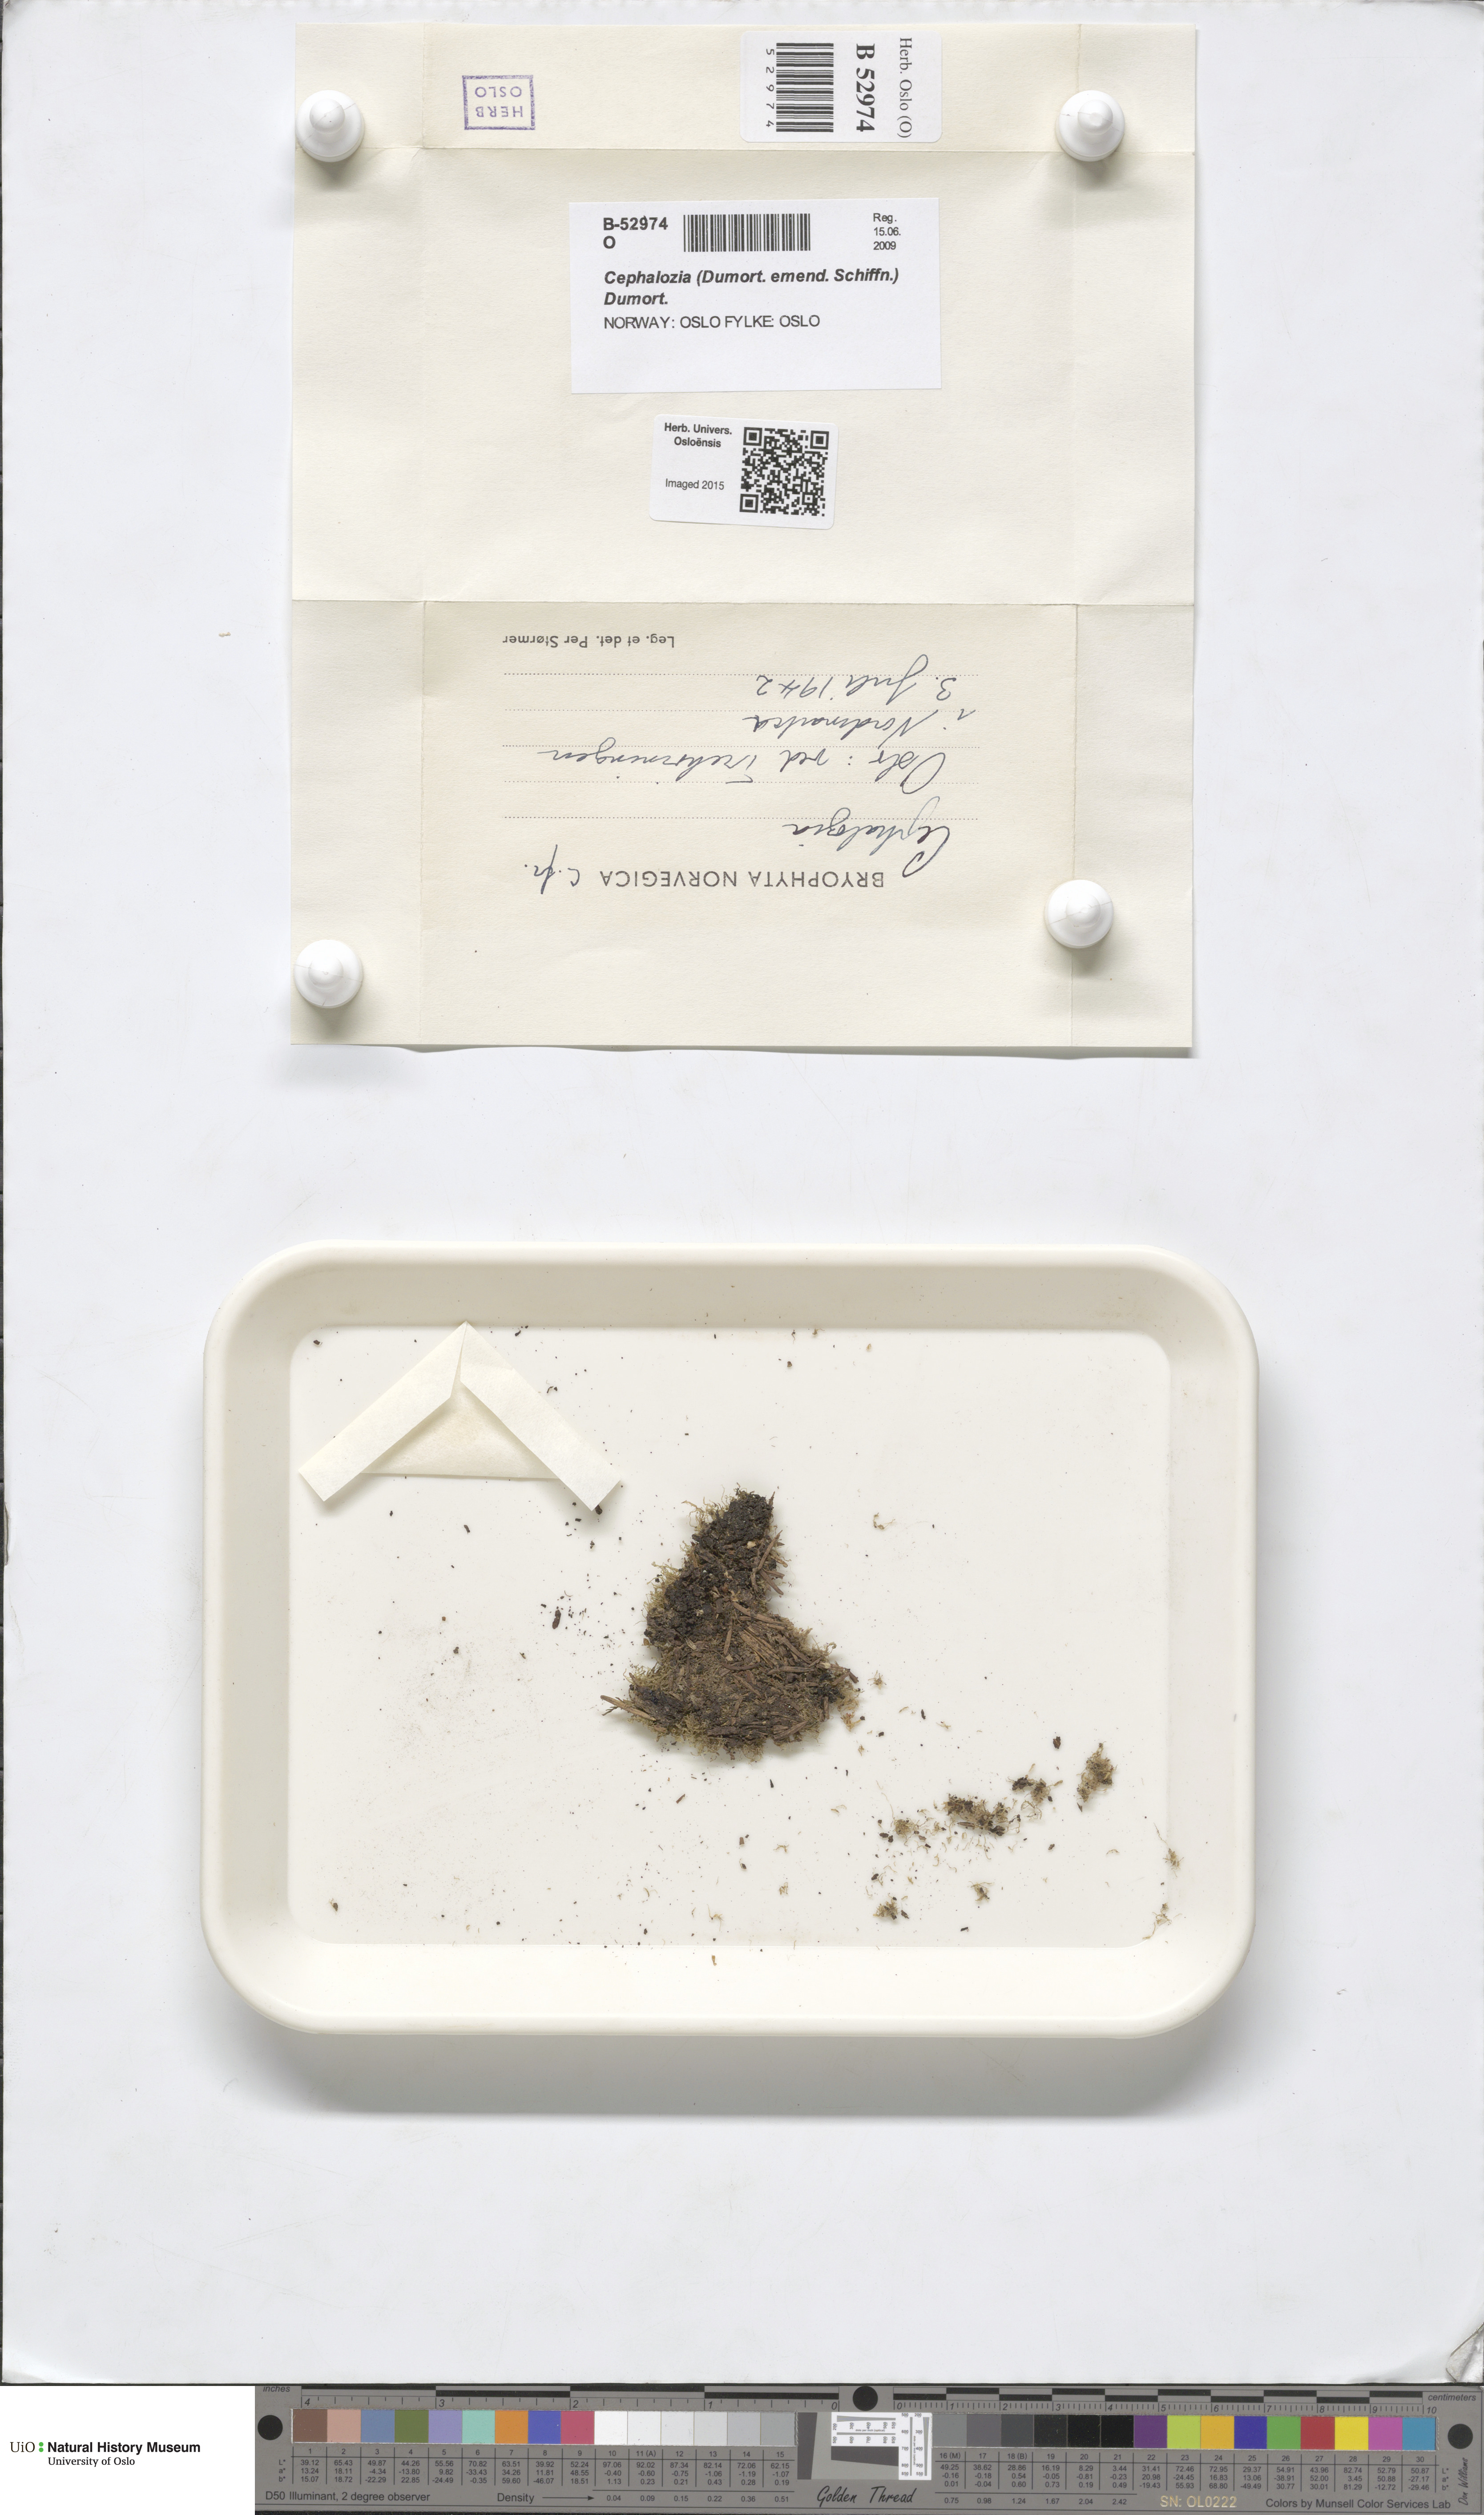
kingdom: Plantae
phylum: Marchantiophyta
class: Jungermanniopsida
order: Jungermanniales
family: Cephaloziaceae
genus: Cephalozia
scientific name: Cephalozia
